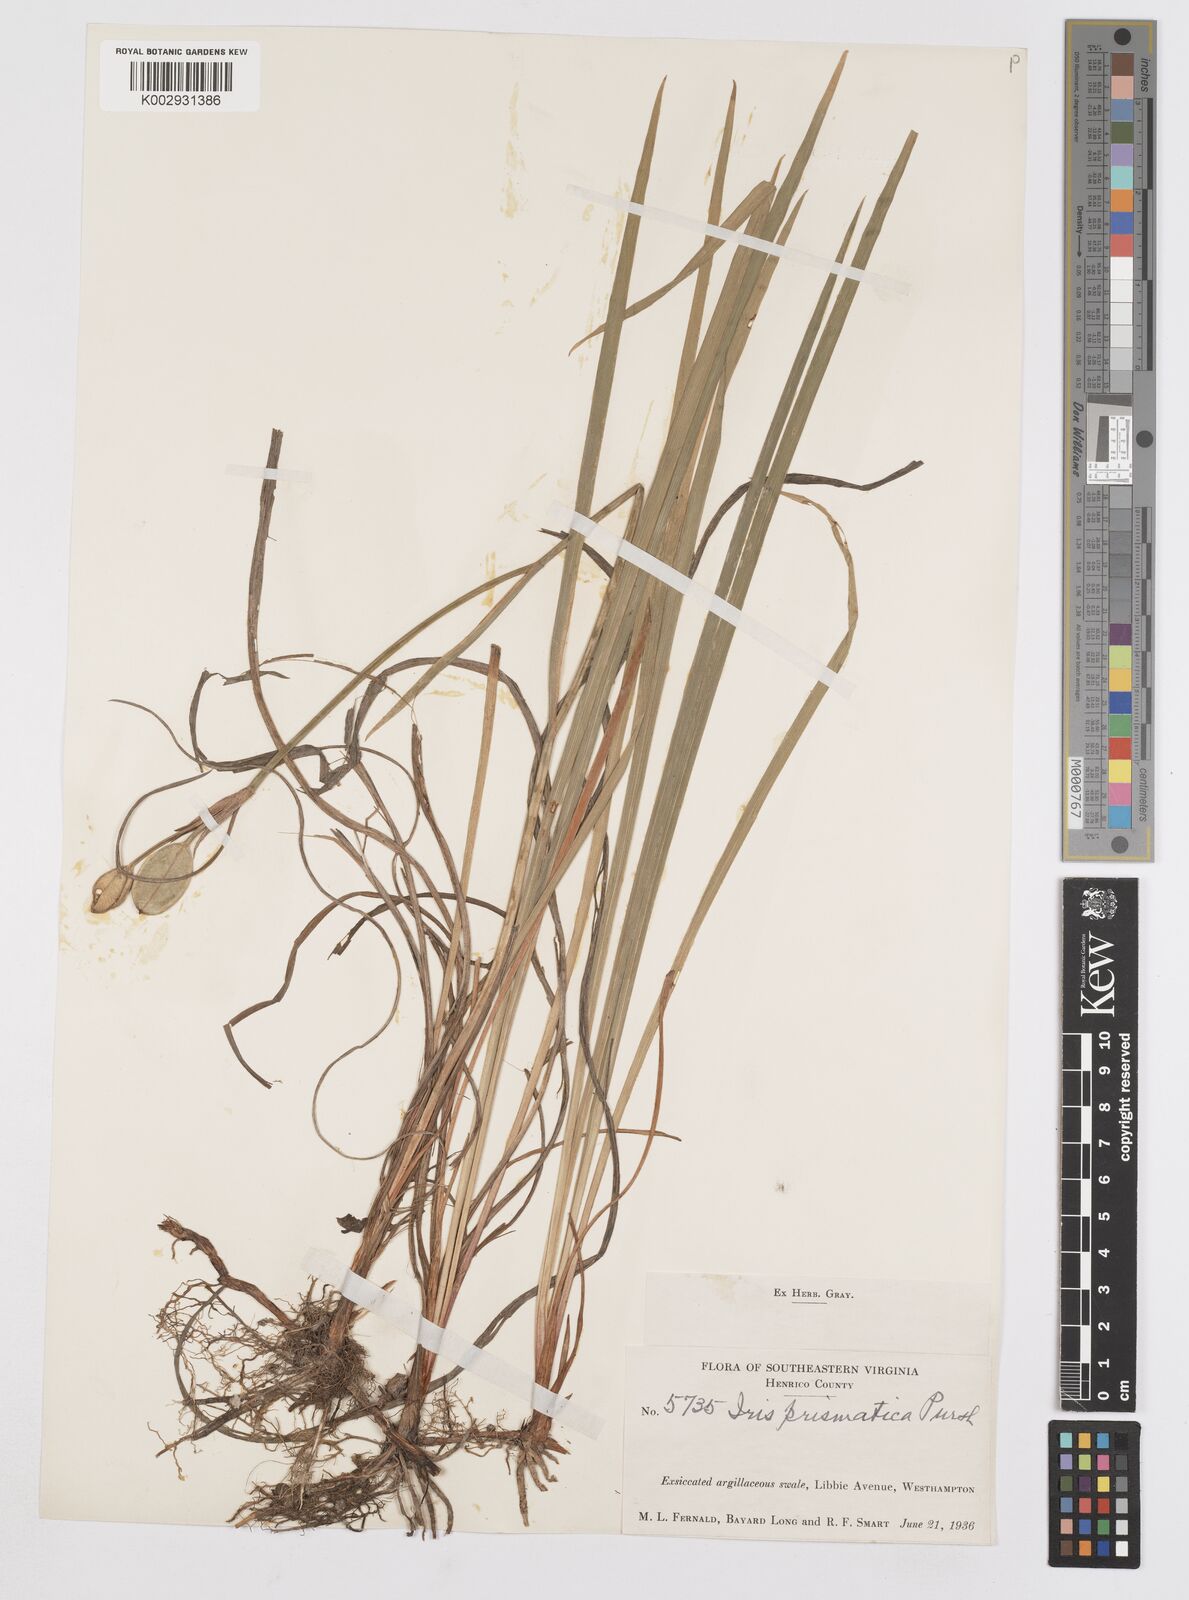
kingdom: Plantae
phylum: Tracheophyta
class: Liliopsida
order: Asparagales
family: Iridaceae
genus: Iris
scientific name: Iris prismatica
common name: Slender blue flag
